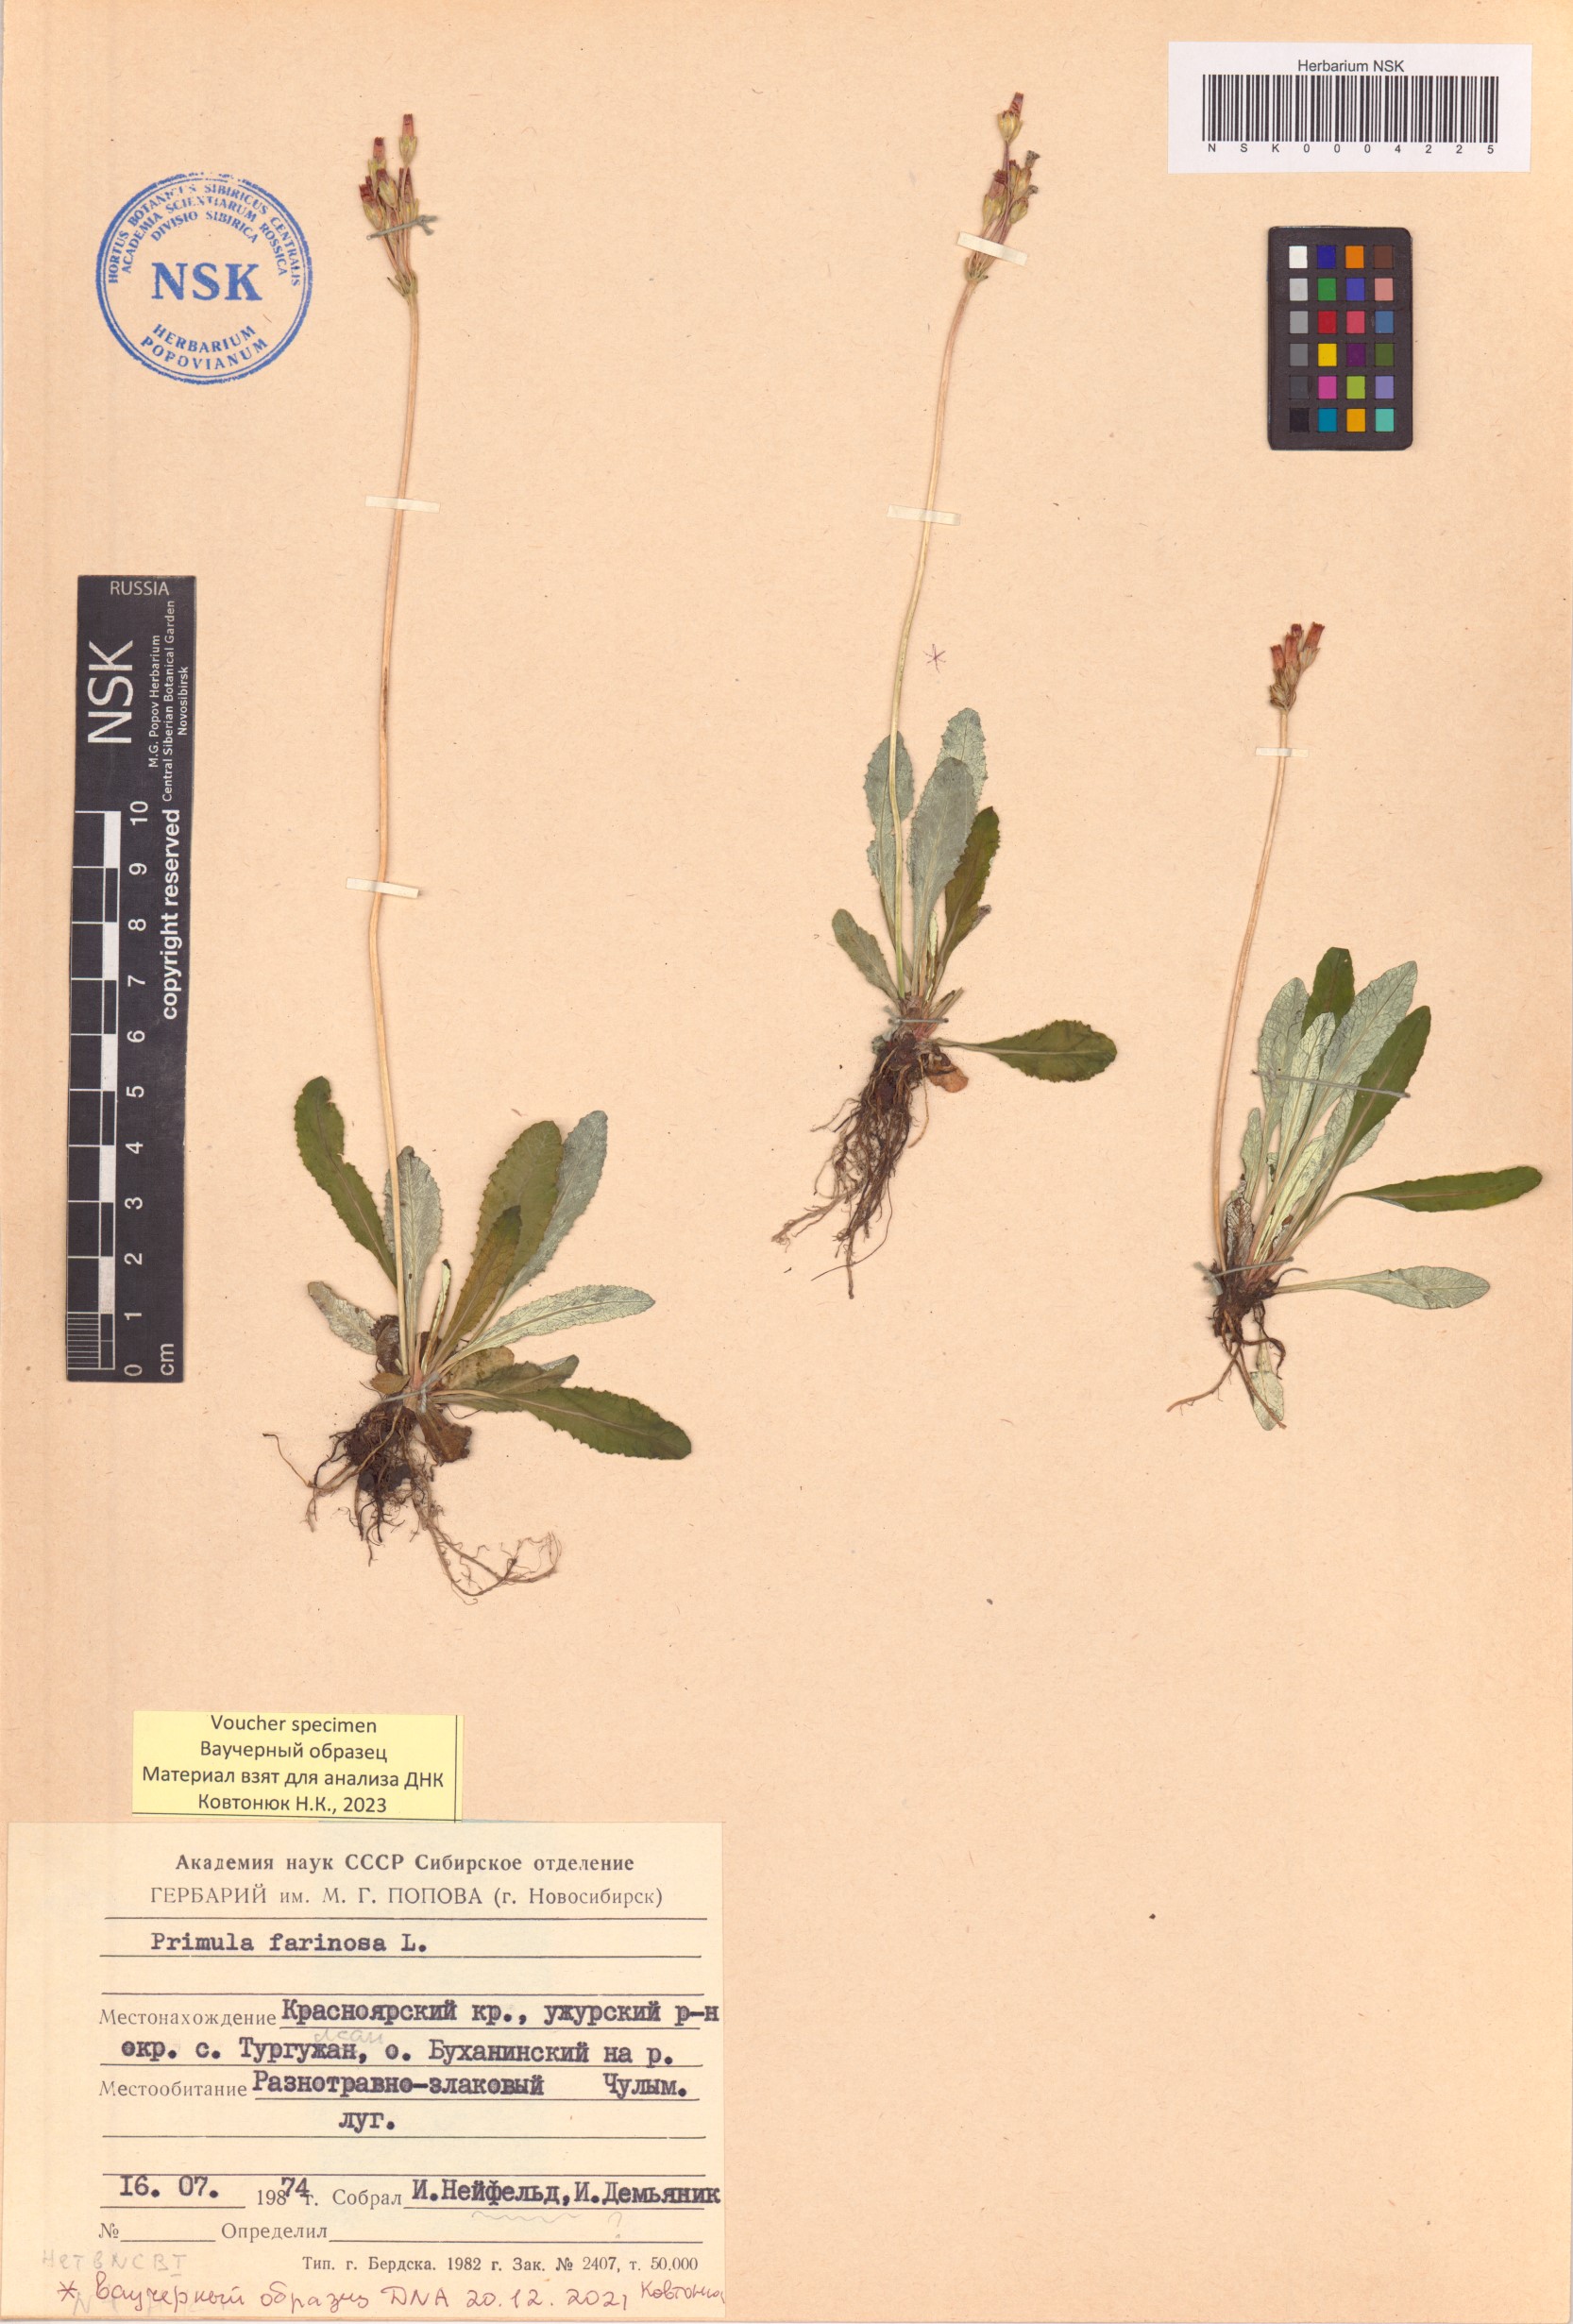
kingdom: Plantae
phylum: Tracheophyta
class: Magnoliopsida
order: Ericales
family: Primulaceae
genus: Primula
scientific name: Primula farinosa
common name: Bird's-eye primrose
